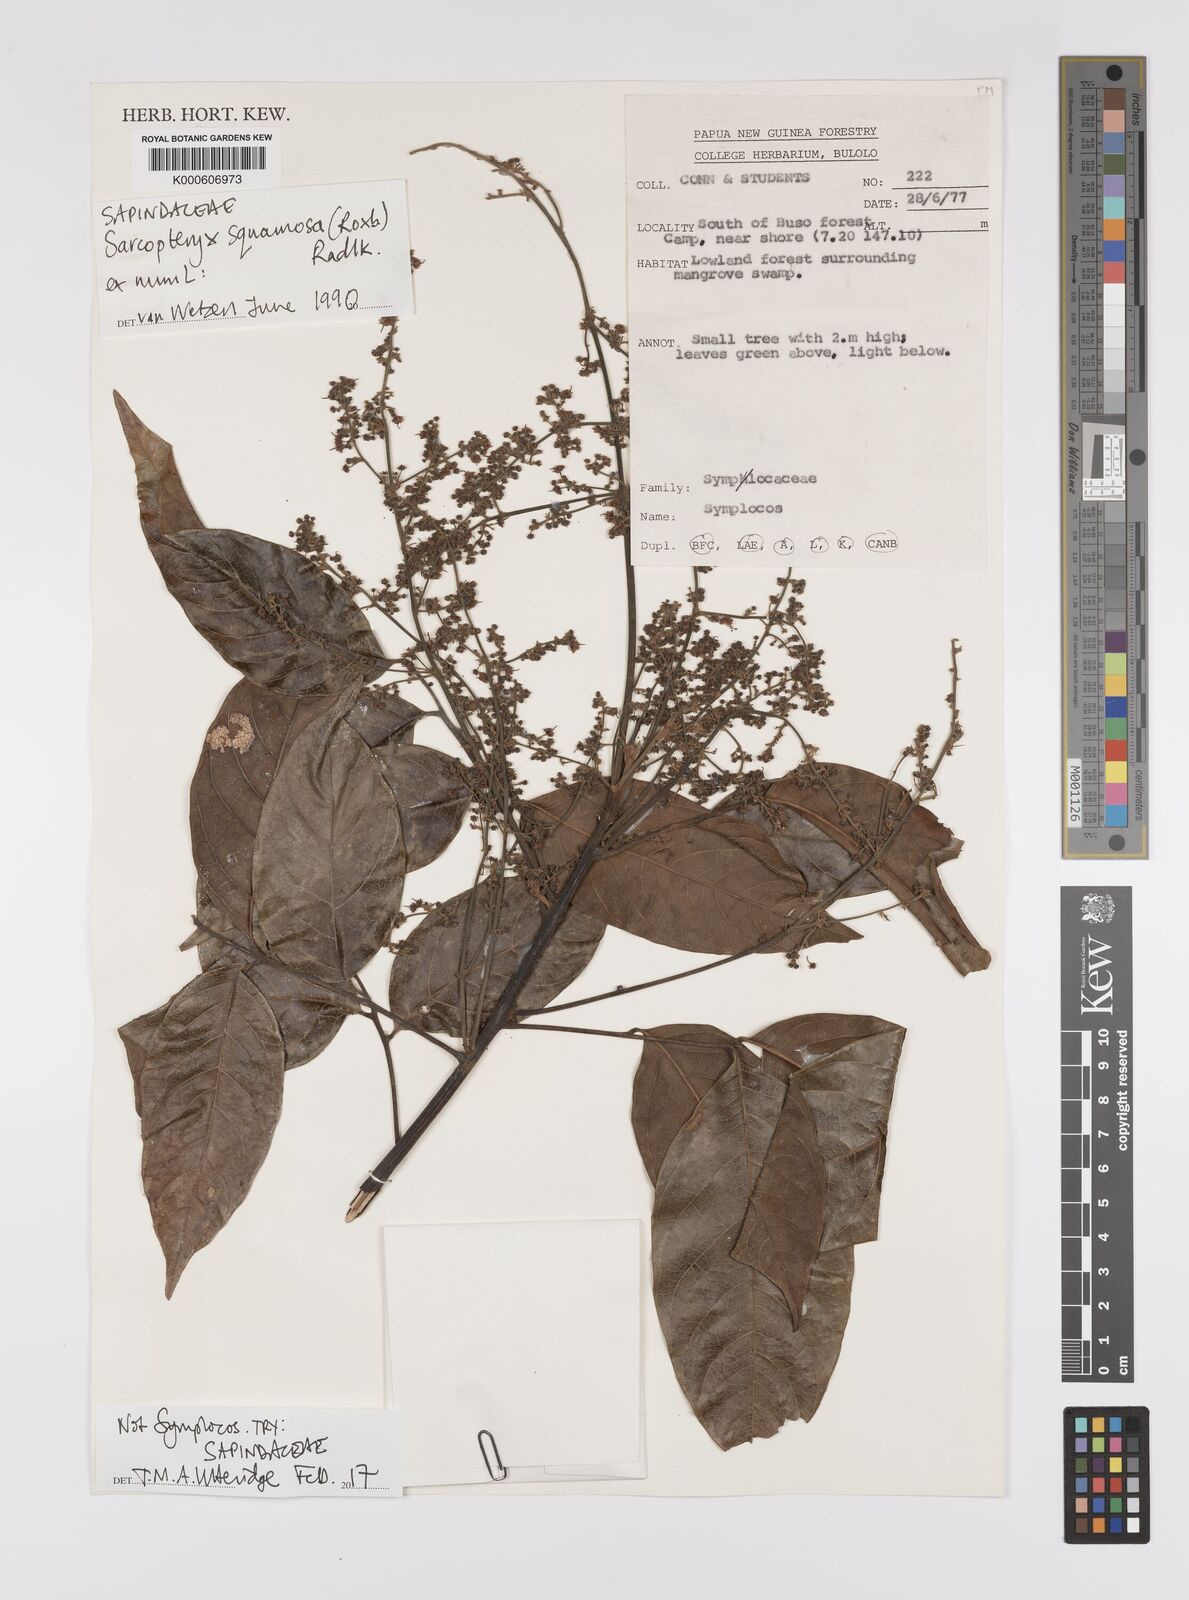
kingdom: Plantae
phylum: Tracheophyta
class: Magnoliopsida
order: Sapindales
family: Sapindaceae
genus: Sarcopteryx
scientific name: Sarcopteryx squamosa
